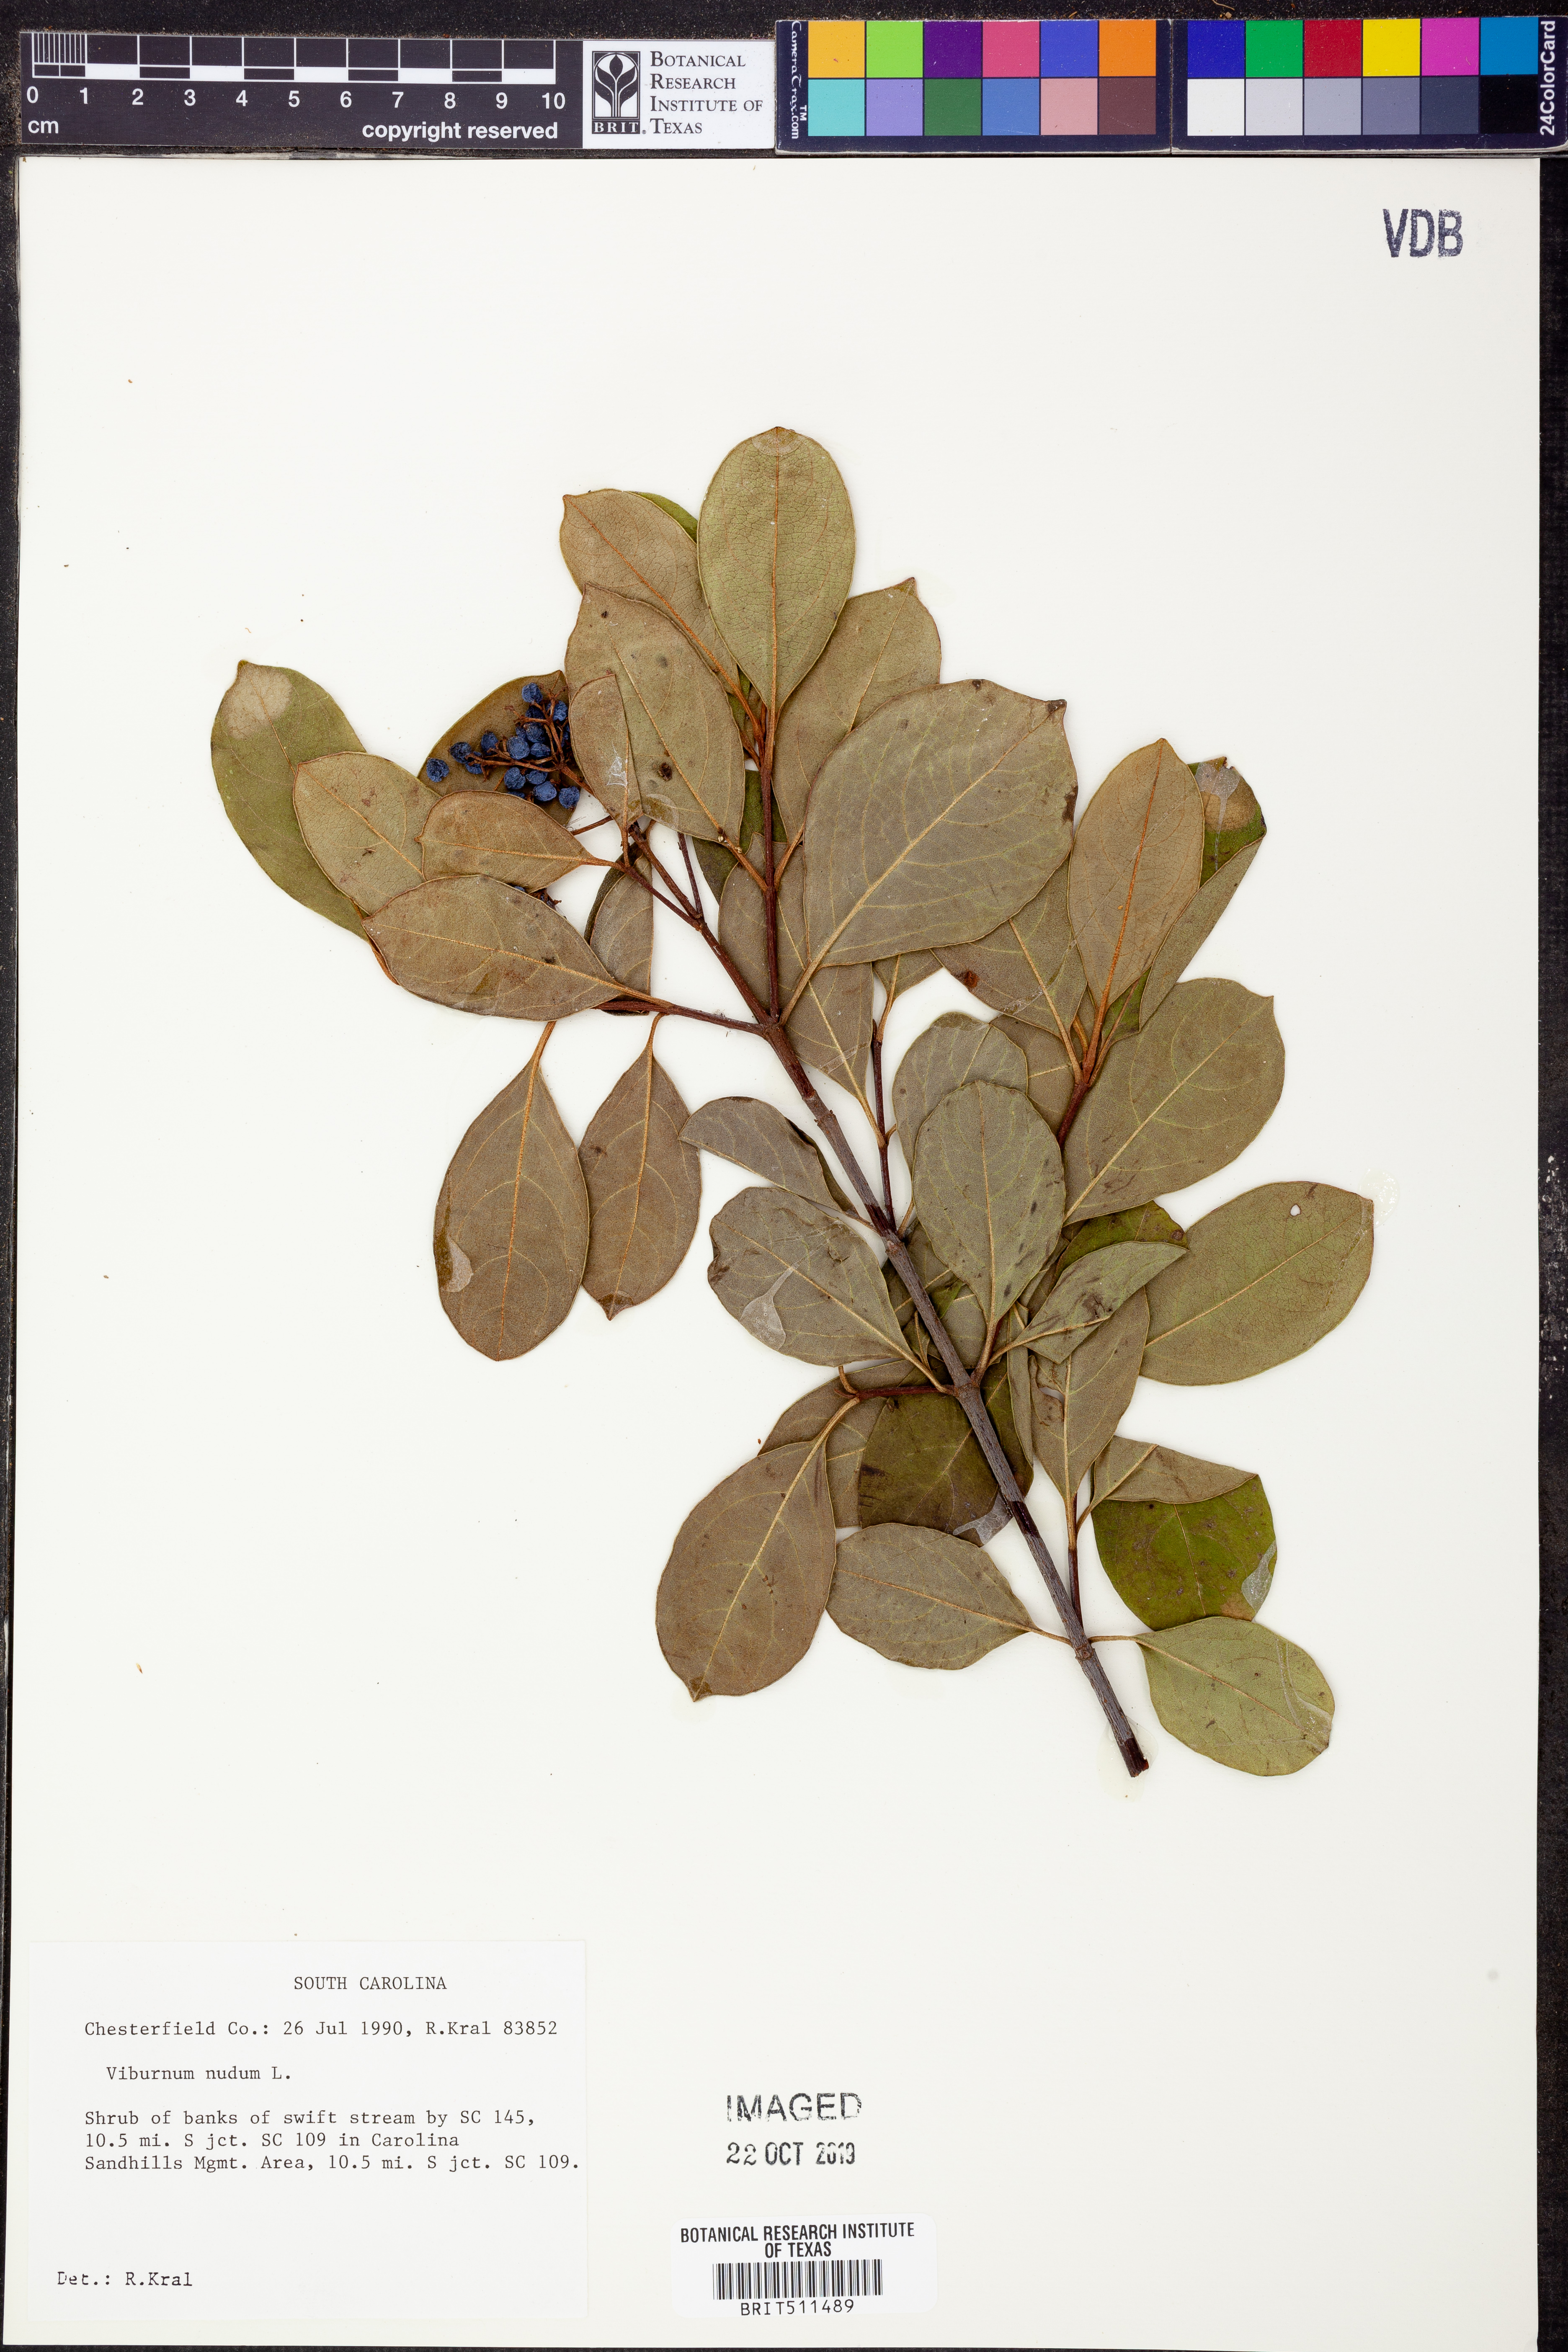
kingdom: Plantae
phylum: Tracheophyta
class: Magnoliopsida
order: Dipsacales
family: Viburnaceae
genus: Viburnum
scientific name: Viburnum nudum
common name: Possum haw
